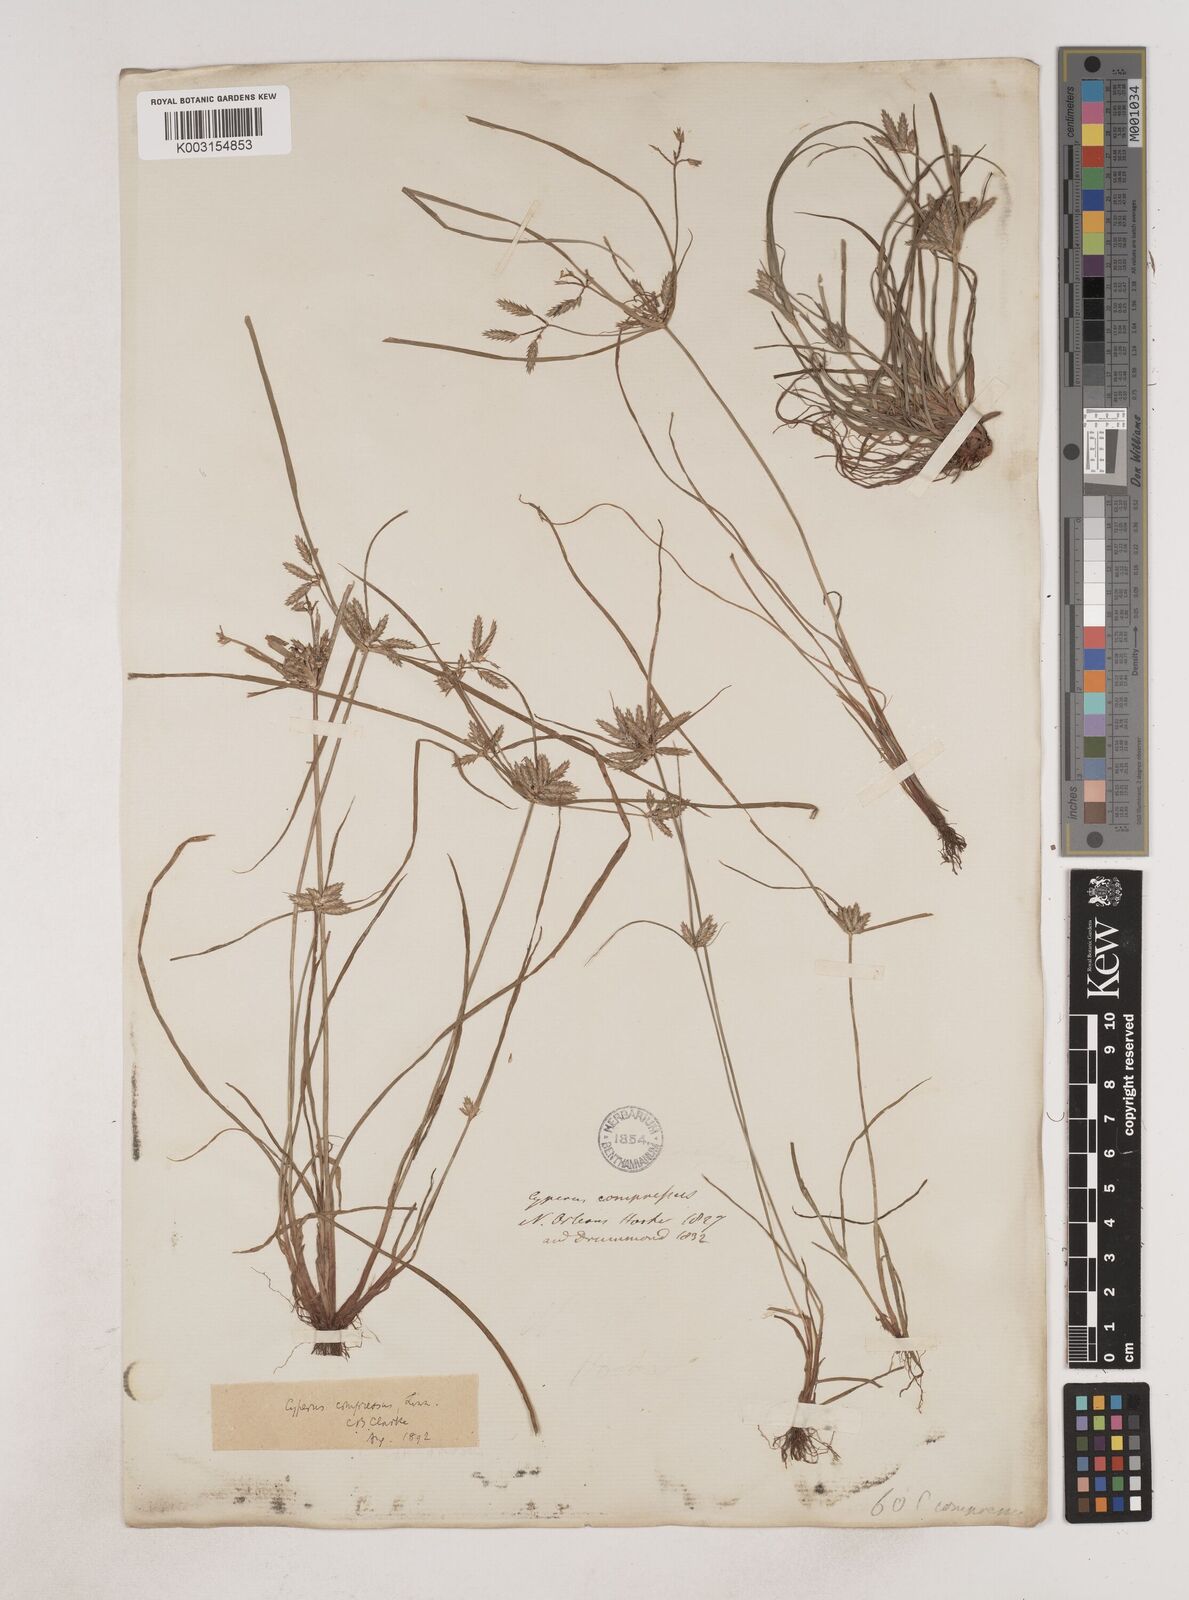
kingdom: Plantae
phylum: Tracheophyta
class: Liliopsida
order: Poales
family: Cyperaceae
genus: Cyperus
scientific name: Cyperus compressus
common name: Poorland flatsedge
